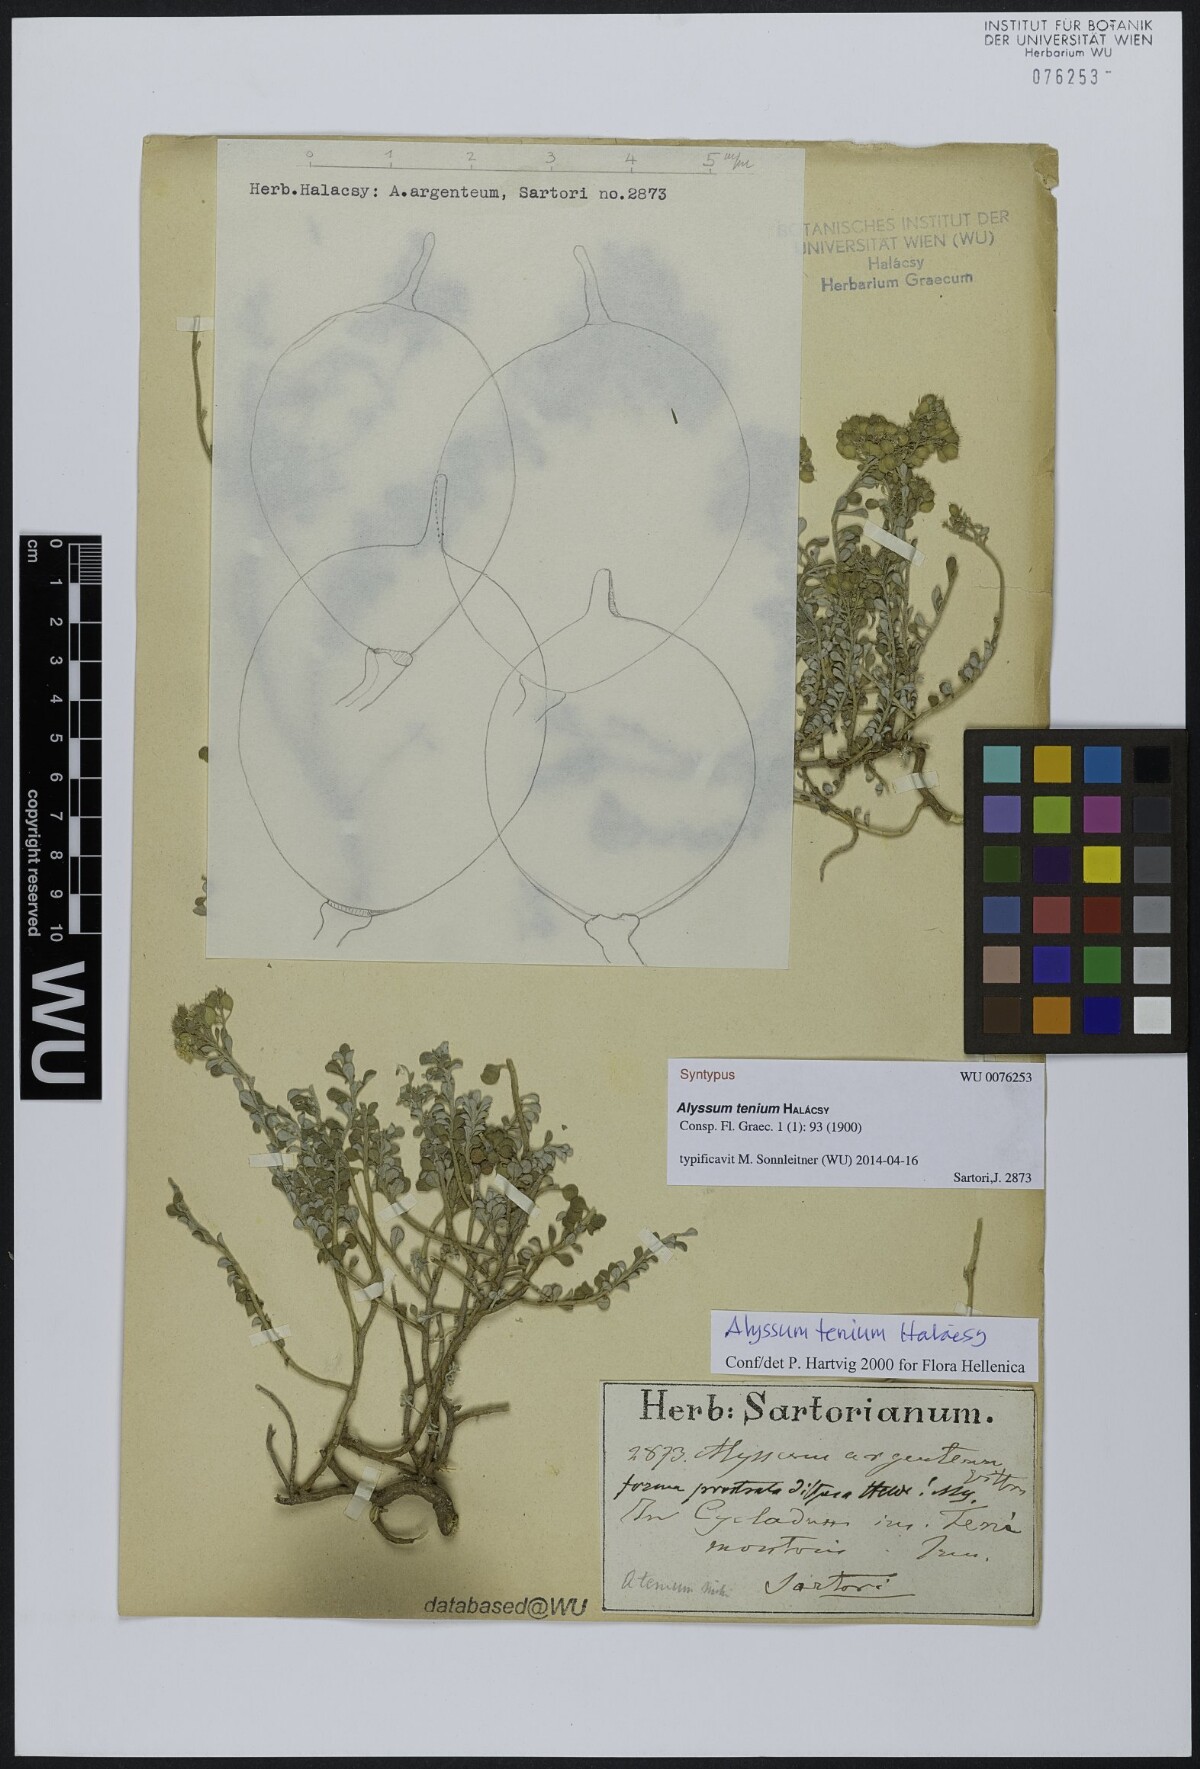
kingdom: Plantae
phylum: Tracheophyta
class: Magnoliopsida
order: Brassicales
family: Brassicaceae
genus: Alyssum
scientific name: Alyssum tenium
